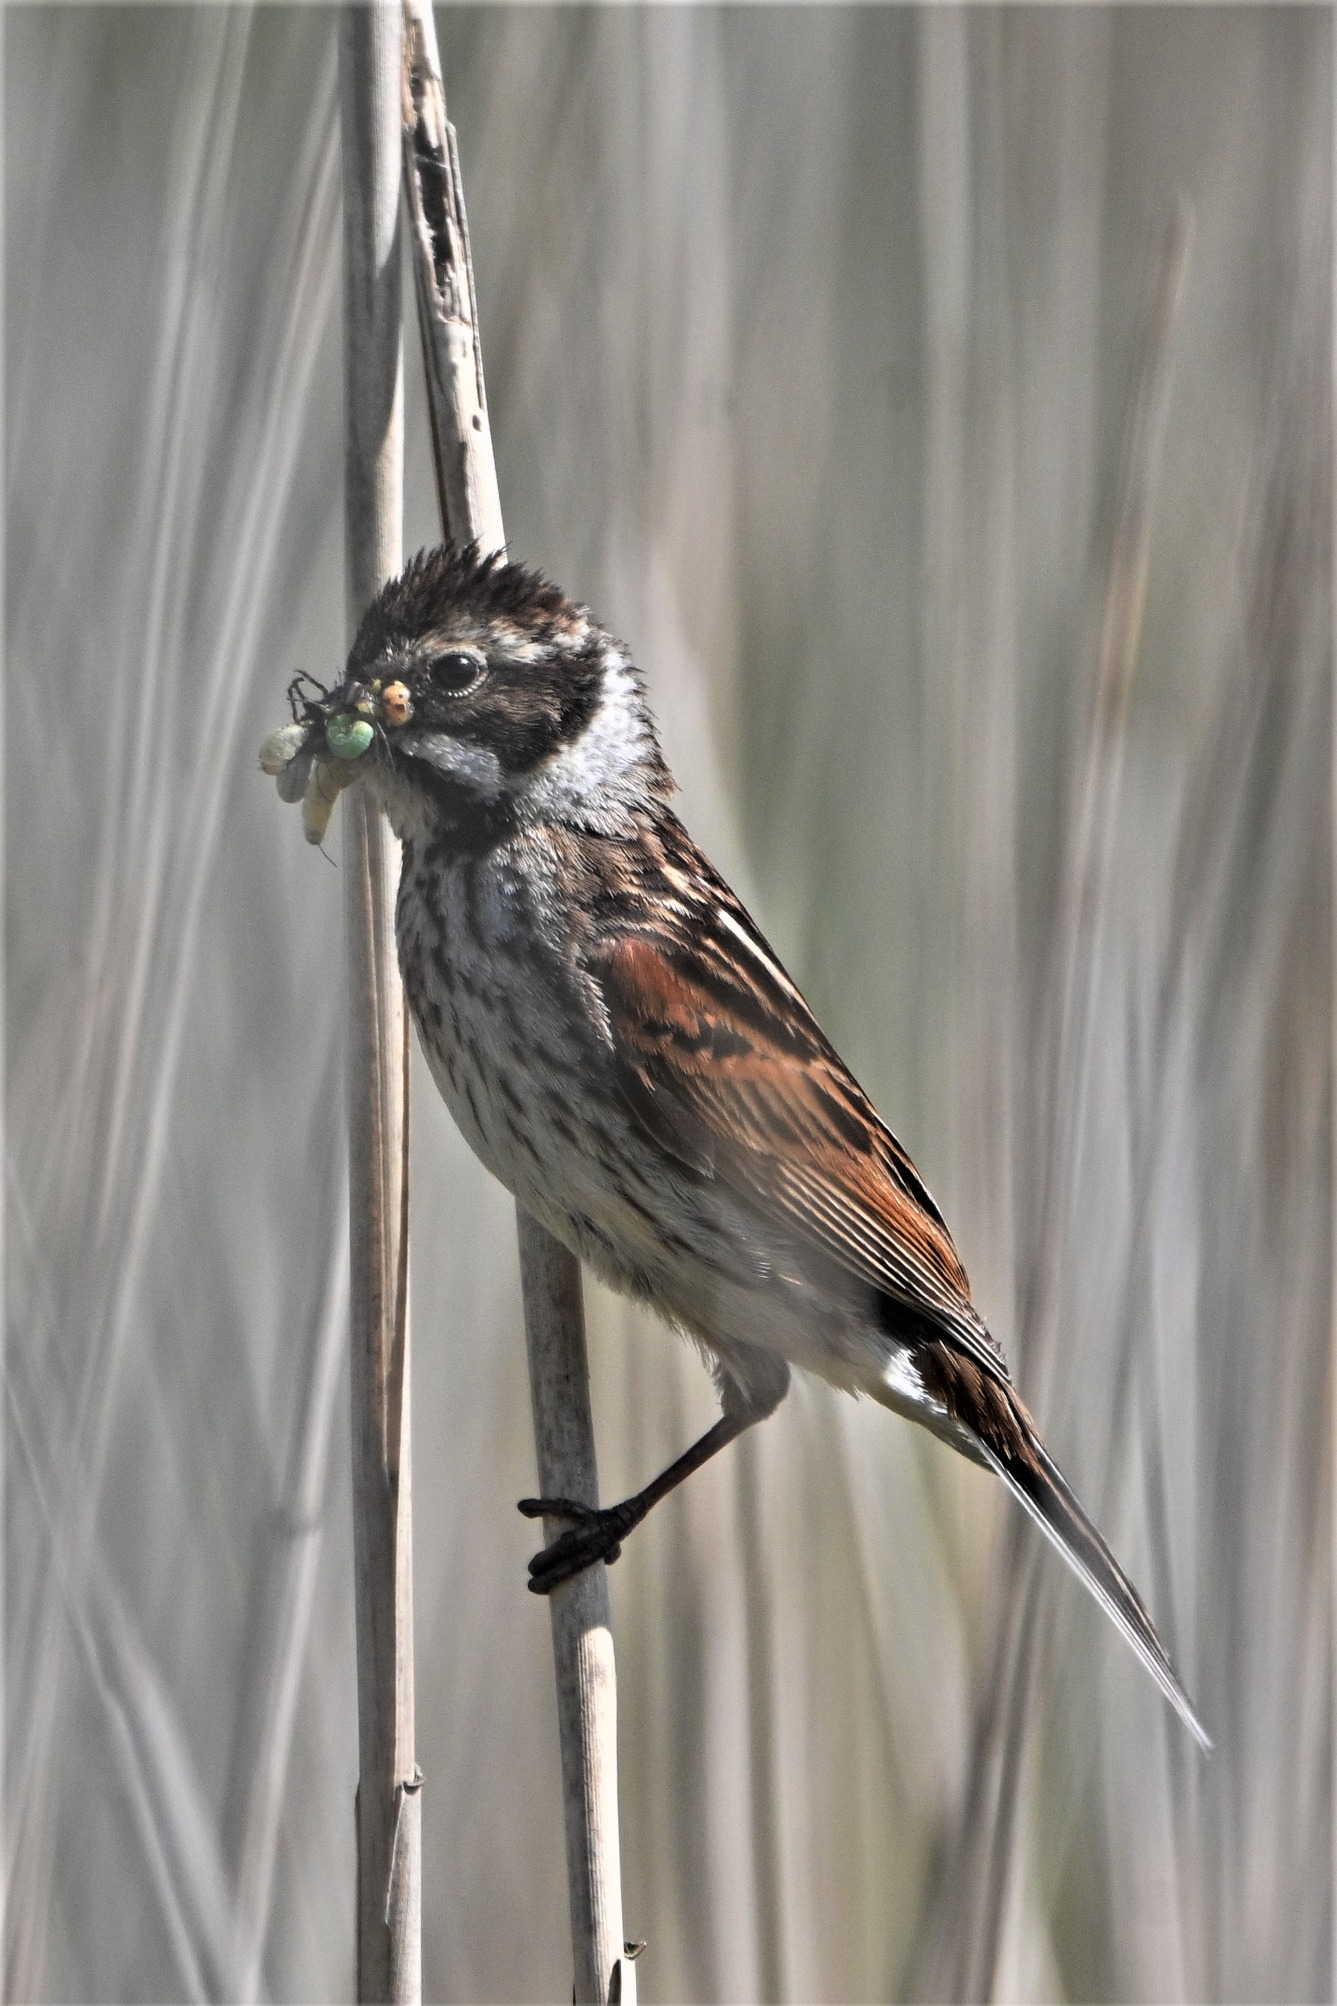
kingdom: Animalia
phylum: Chordata
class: Aves
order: Passeriformes
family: Emberizidae
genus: Emberiza
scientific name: Emberiza schoeniclus
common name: Rørspurv
